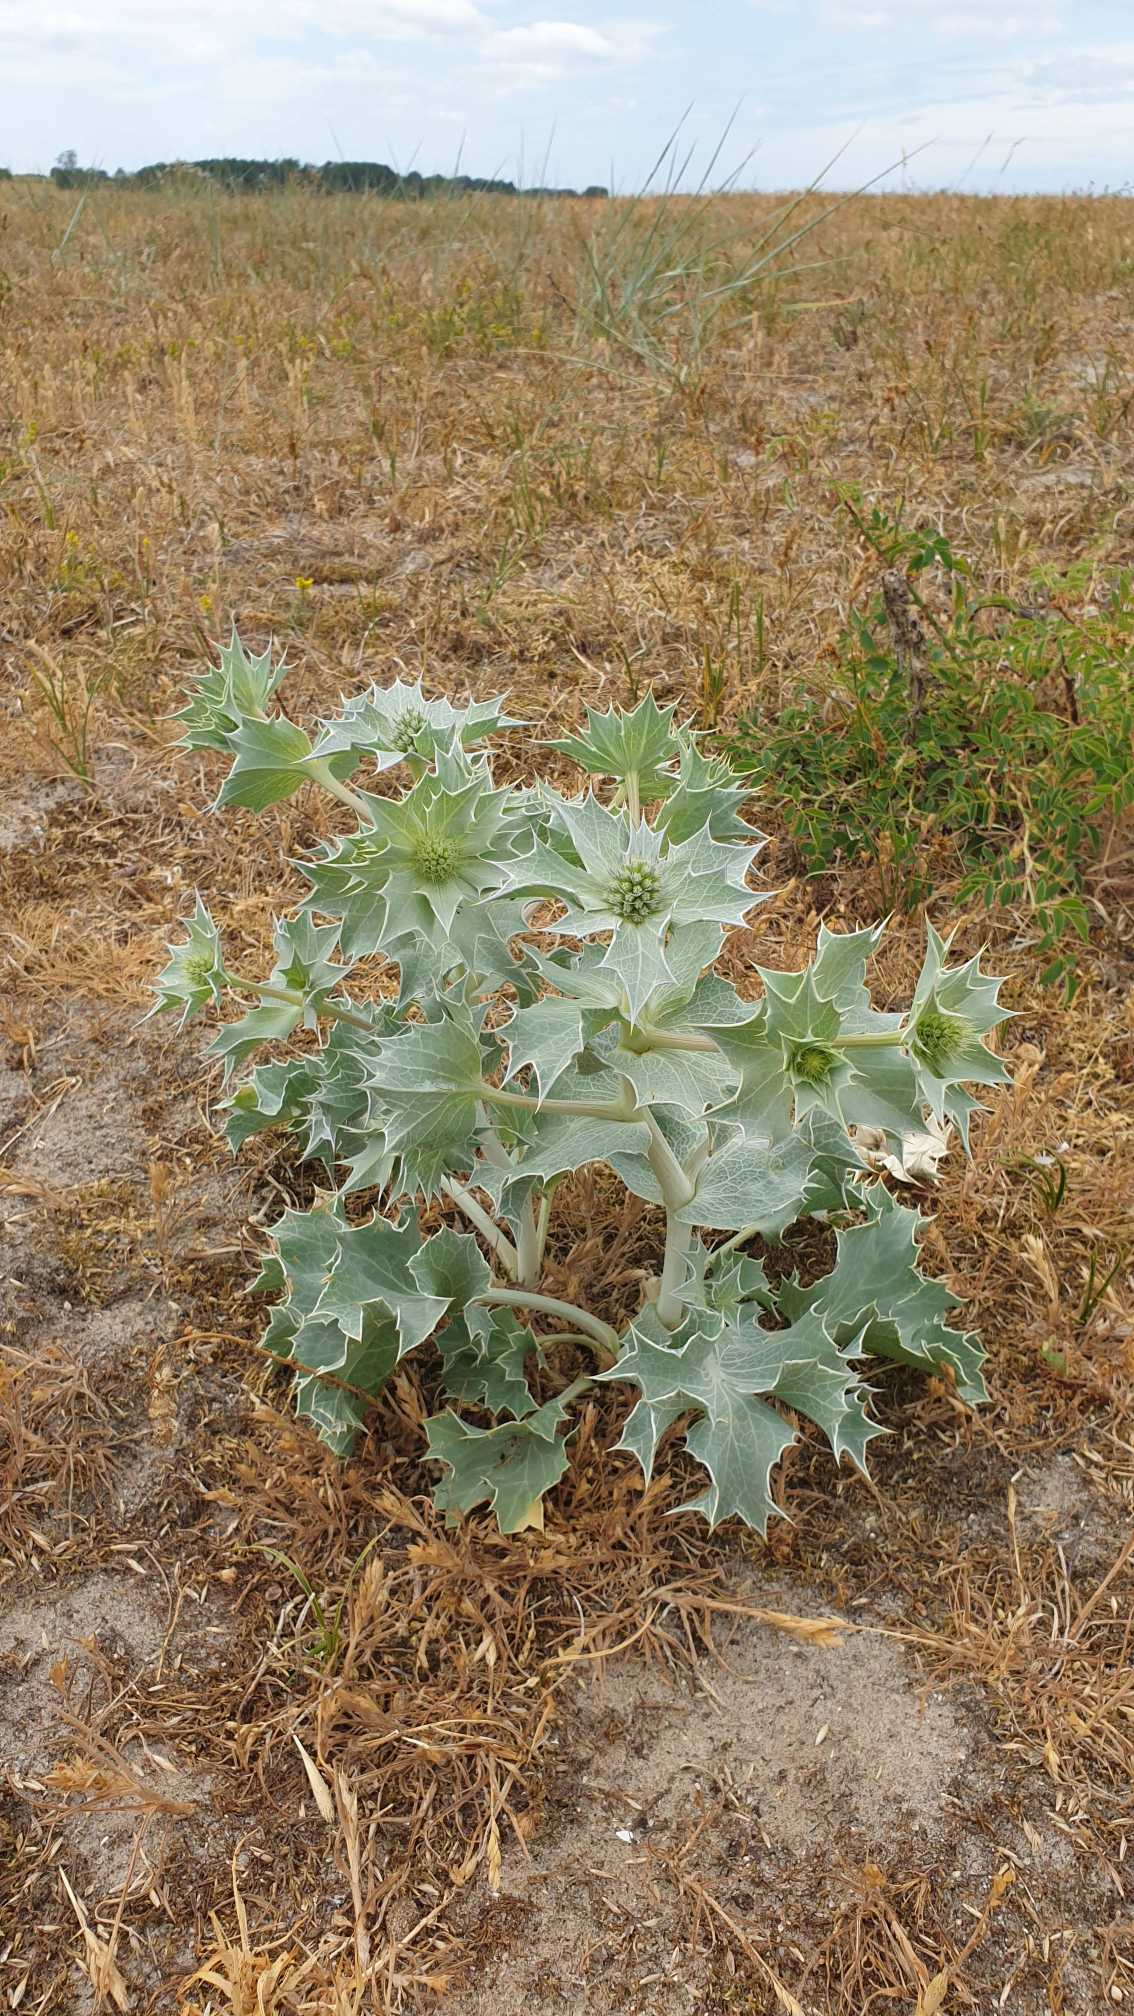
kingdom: Plantae
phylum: Tracheophyta
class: Magnoliopsida
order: Apiales
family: Apiaceae
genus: Eryngium
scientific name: Eryngium maritimum
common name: Strand-mandstro
